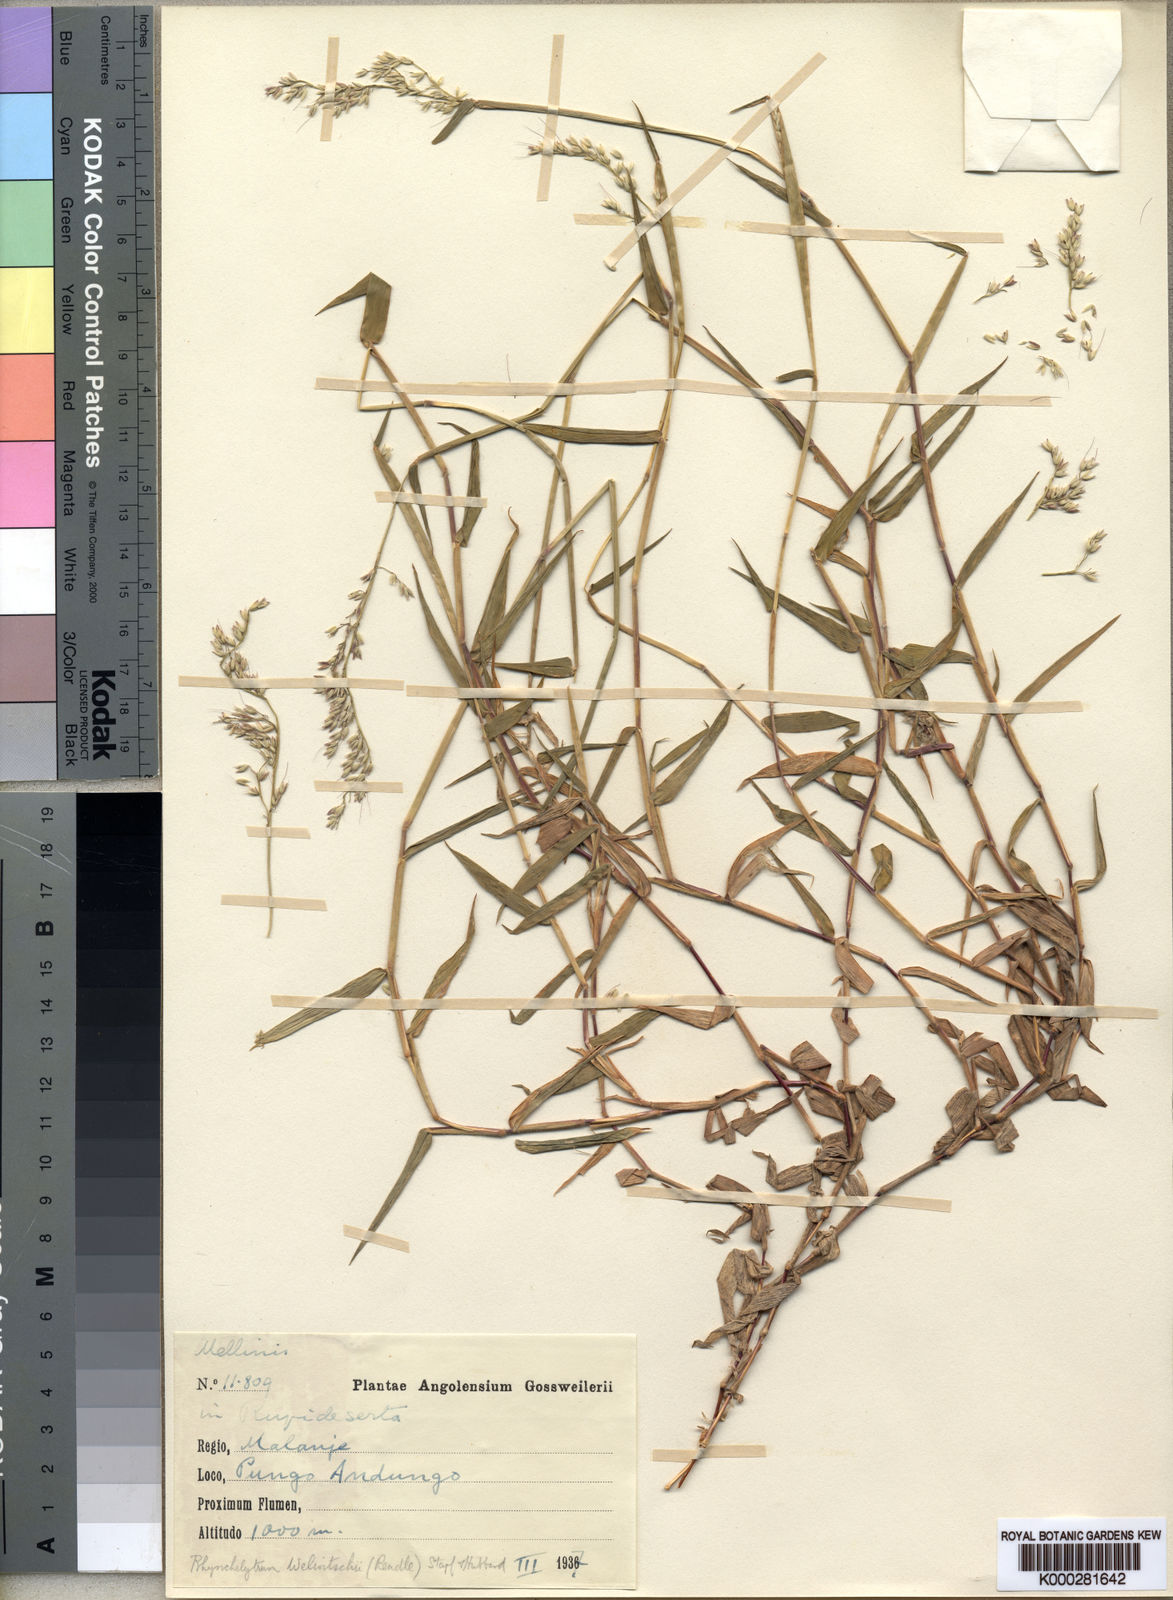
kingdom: Plantae
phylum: Tracheophyta
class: Liliopsida
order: Poales
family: Poaceae
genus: Melinis
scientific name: Melinis welwitschii
